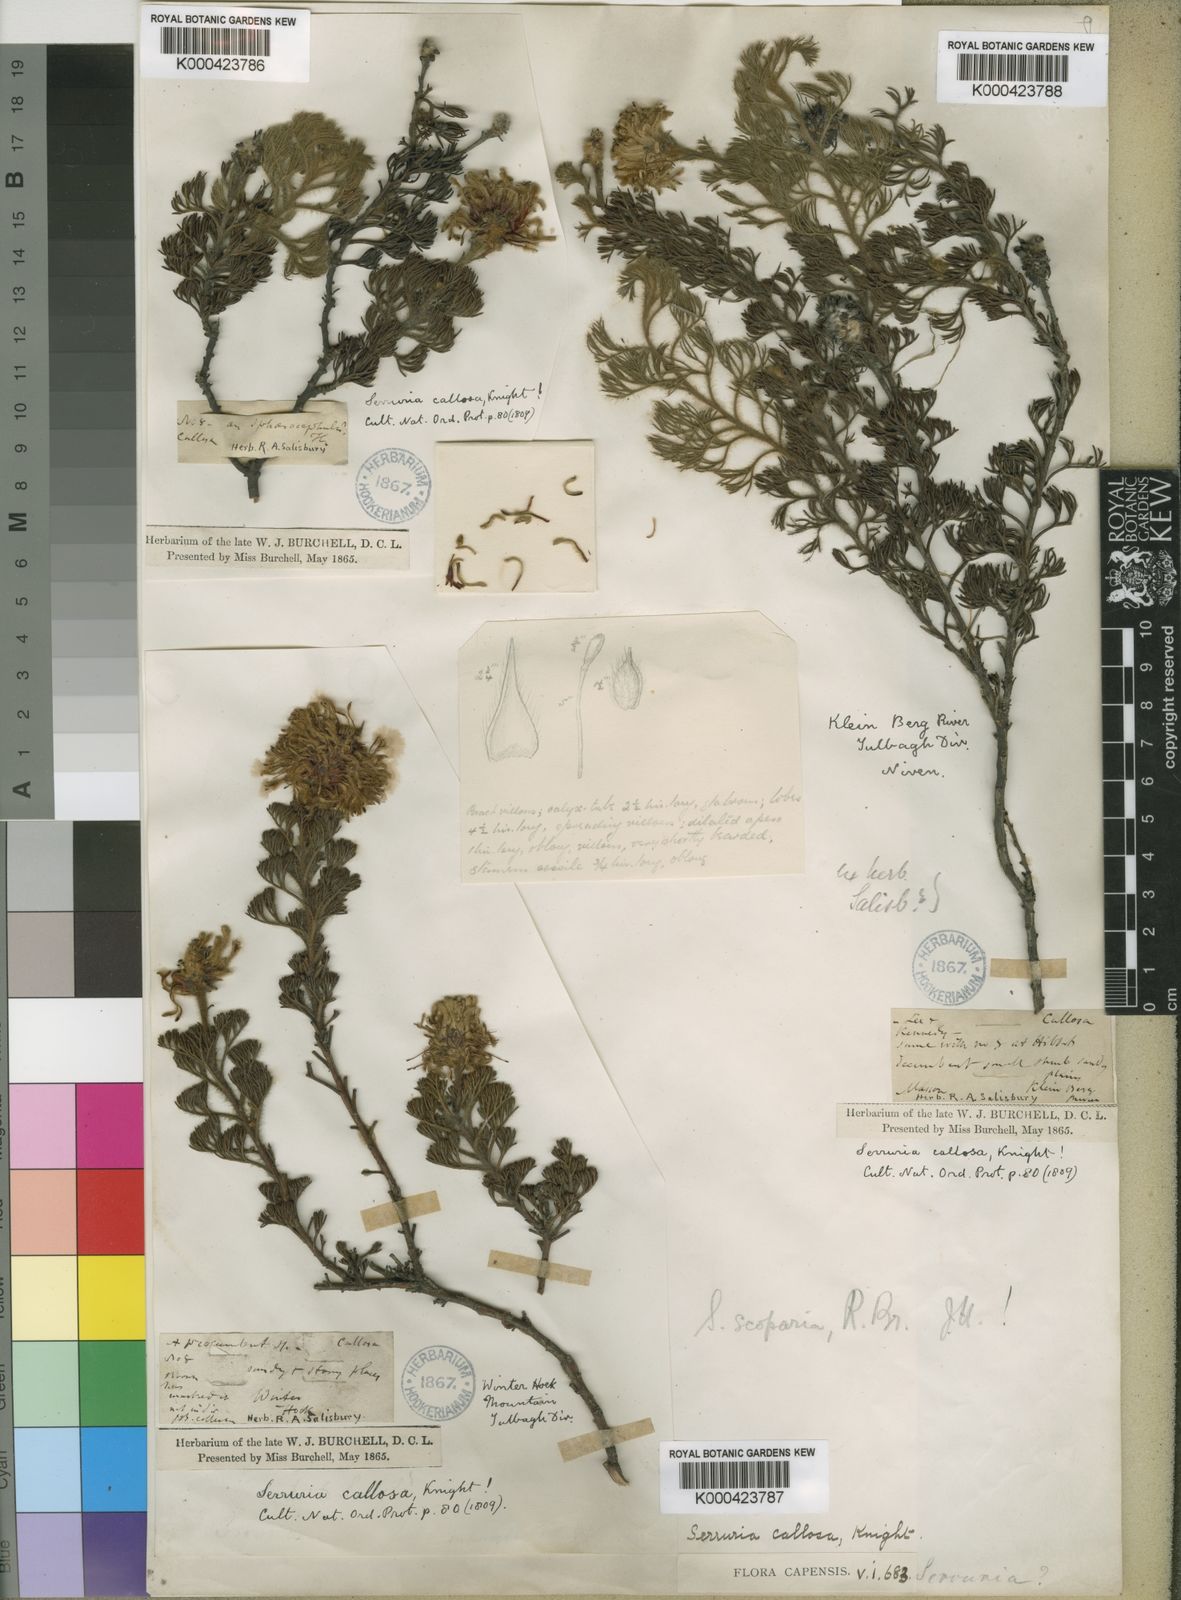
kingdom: Plantae
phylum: Tracheophyta
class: Magnoliopsida
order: Proteales
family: Proteaceae
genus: Serruria
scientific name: Serruria scoparia
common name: Forlorn spiderhead
